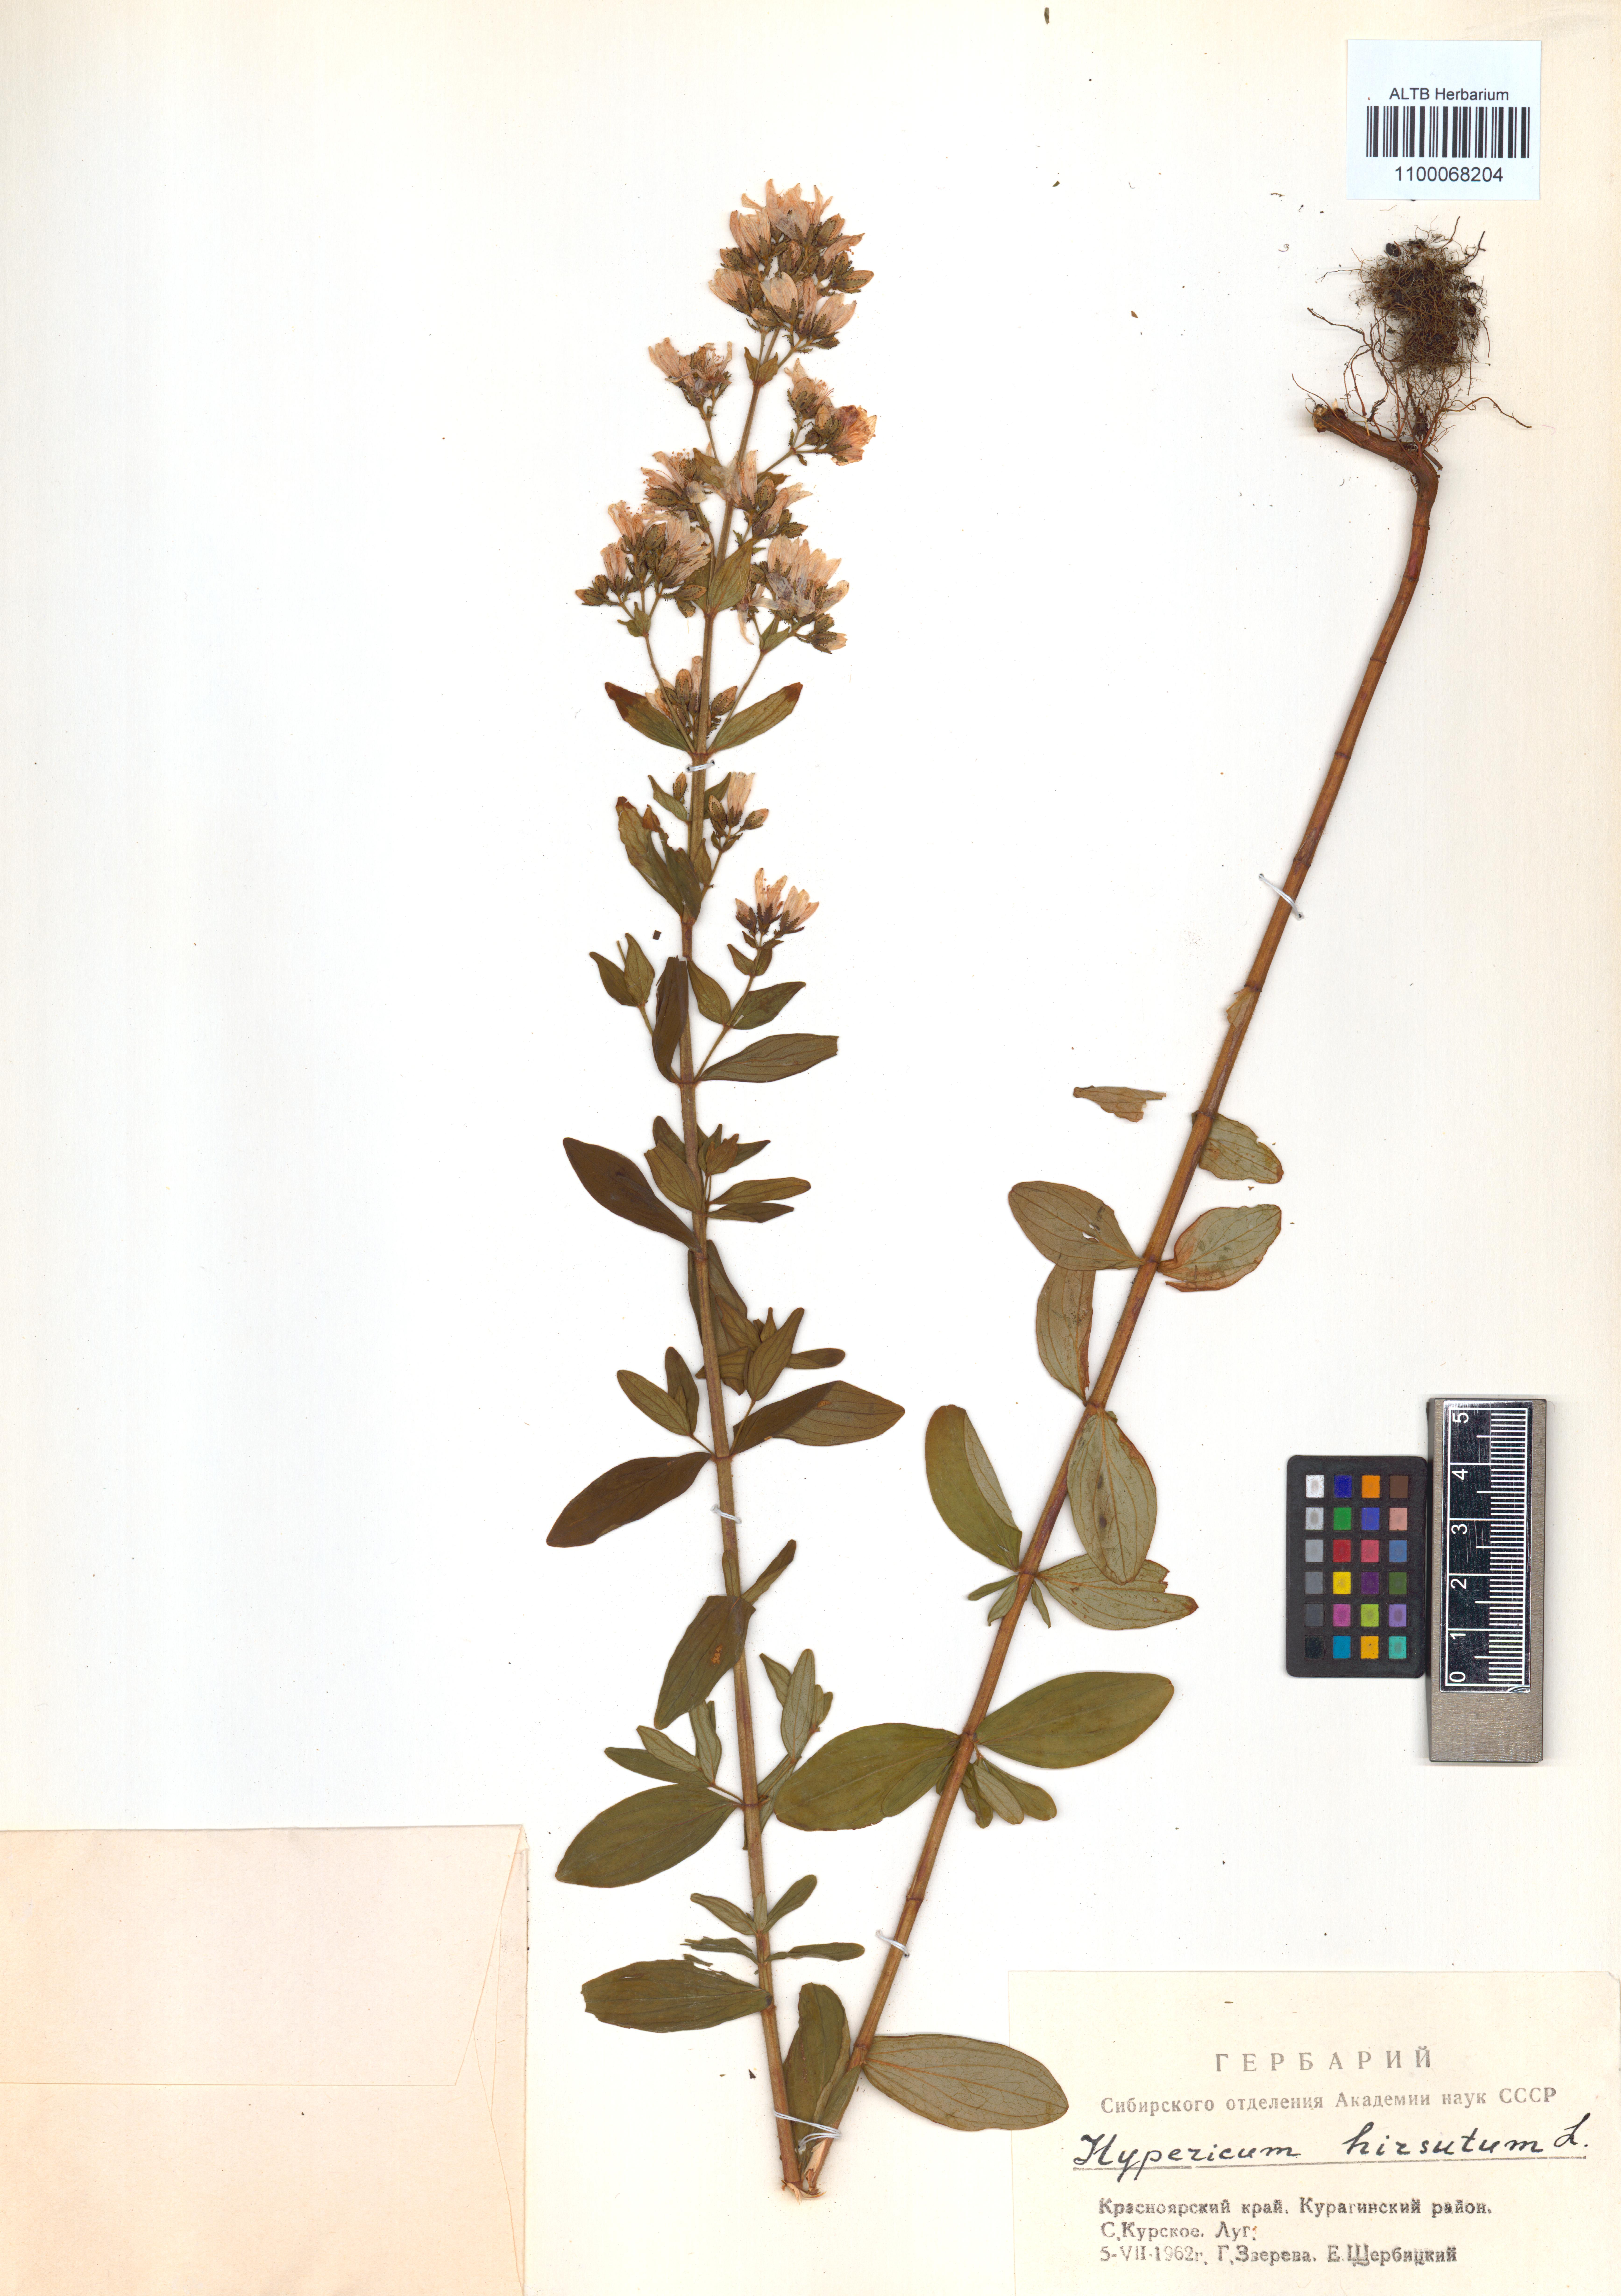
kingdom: Plantae
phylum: Tracheophyta
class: Magnoliopsida
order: Malpighiales
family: Hypericaceae
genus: Hypericum
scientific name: Hypericum hirsutum
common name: Hairy st. john's-wort
